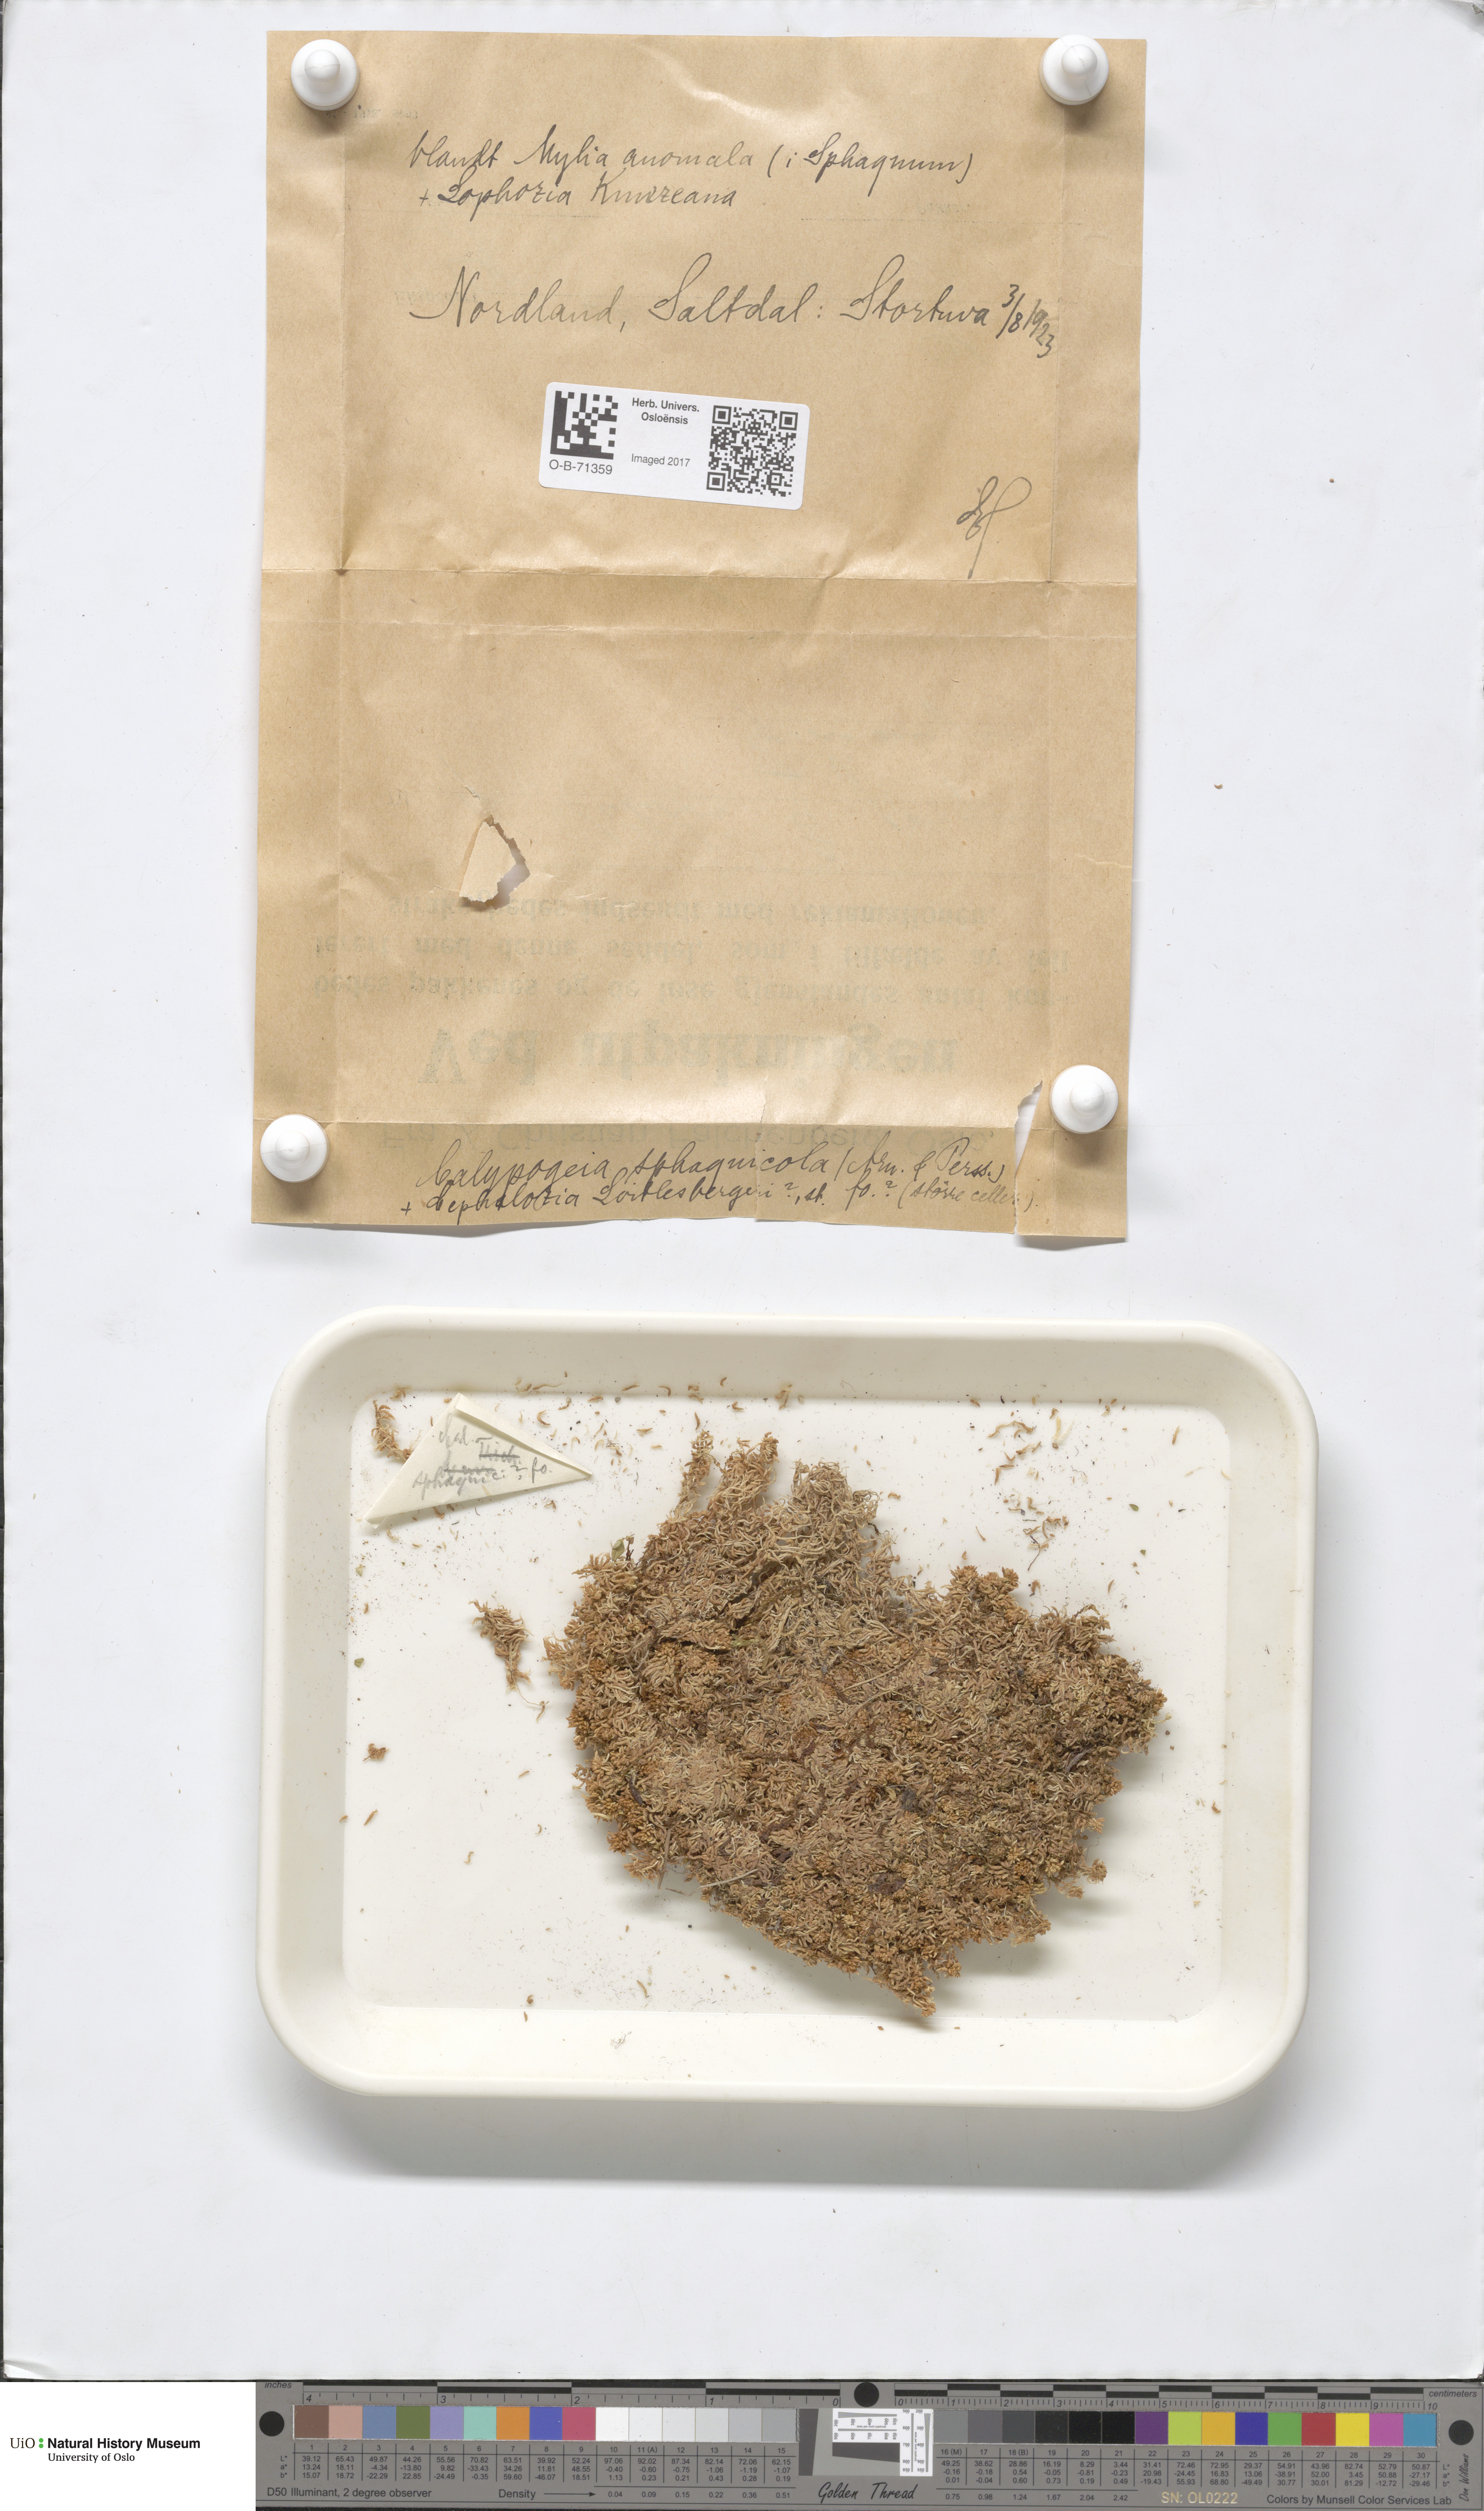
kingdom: Plantae
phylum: Marchantiophyta
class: Jungermanniopsida
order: Jungermanniales
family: Calypogeiaceae
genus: Calypogeia
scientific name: Calypogeia sphagnicola
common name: Bog pouchwort
